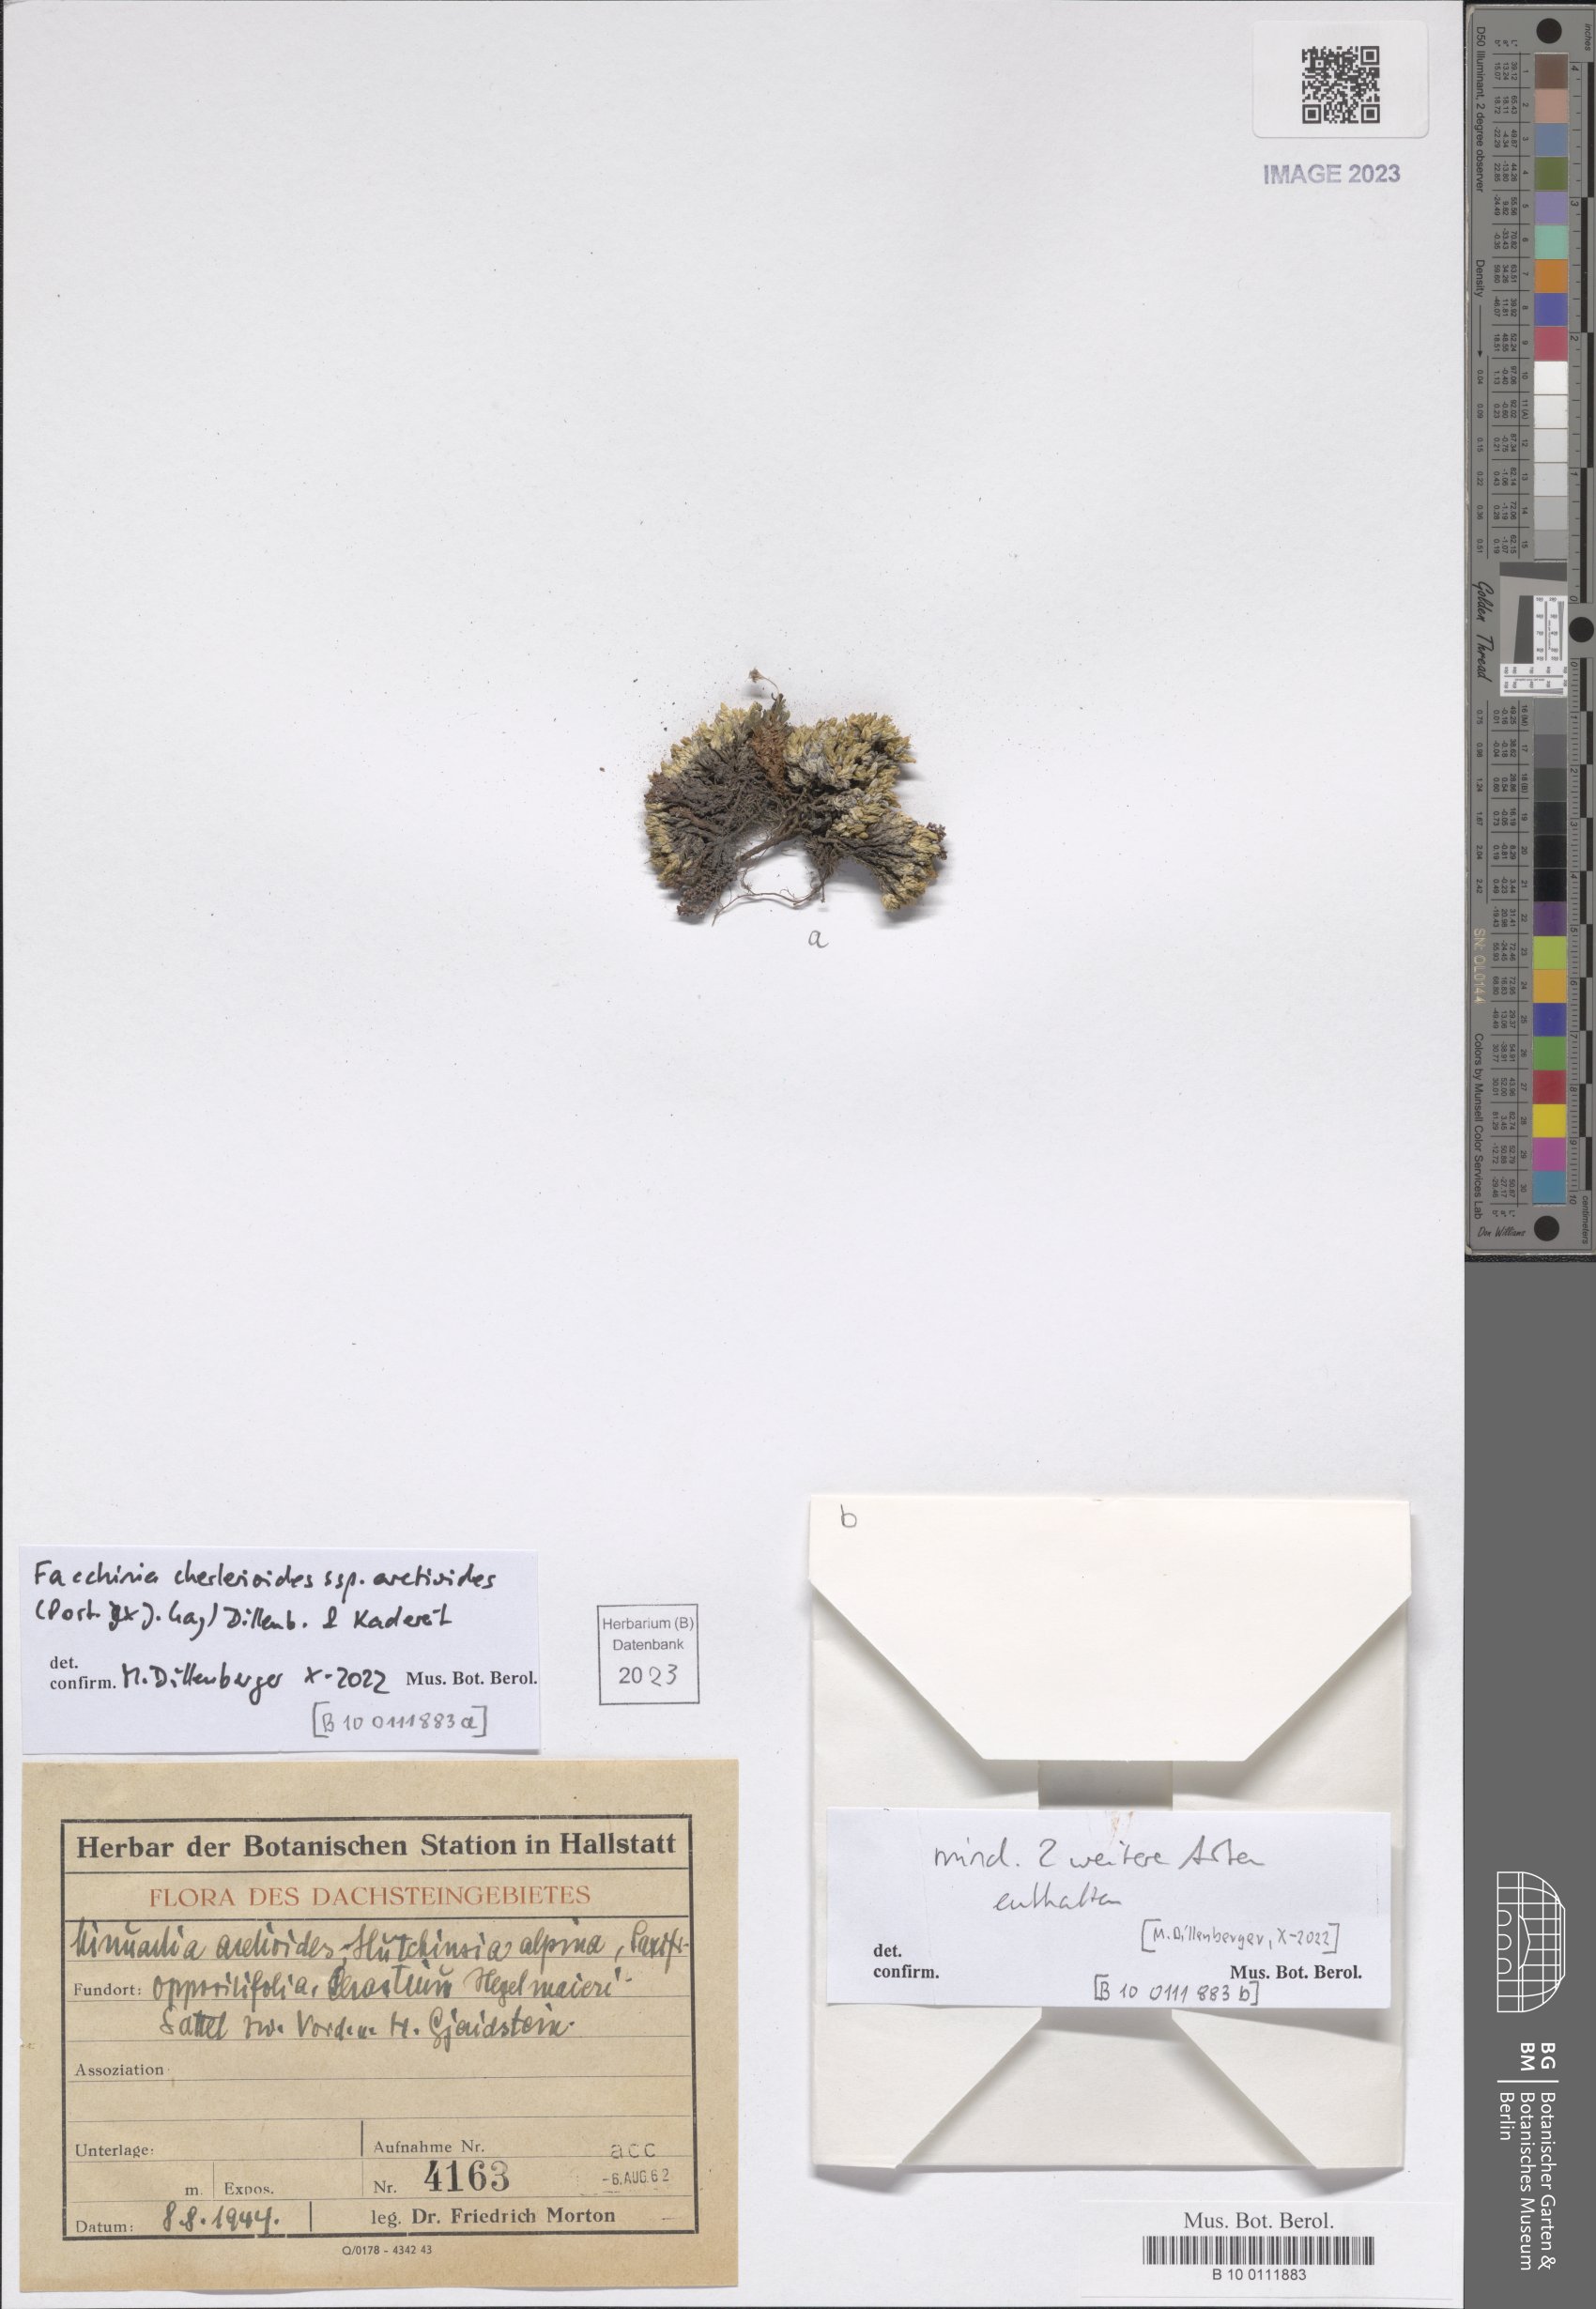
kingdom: Plantae
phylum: Tracheophyta
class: Magnoliopsida
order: Caryophyllales
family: Caryophyllaceae
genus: Facchinia
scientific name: Facchinia cherlerioides
